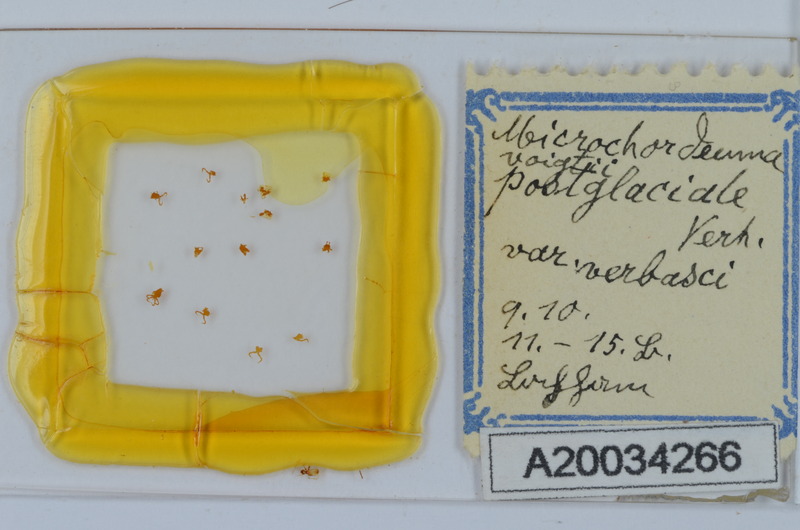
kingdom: Animalia
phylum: Arthropoda
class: Diplopoda
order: Chordeumatida
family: Chordeumatidae
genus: Melogona
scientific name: Melogona voigtii
